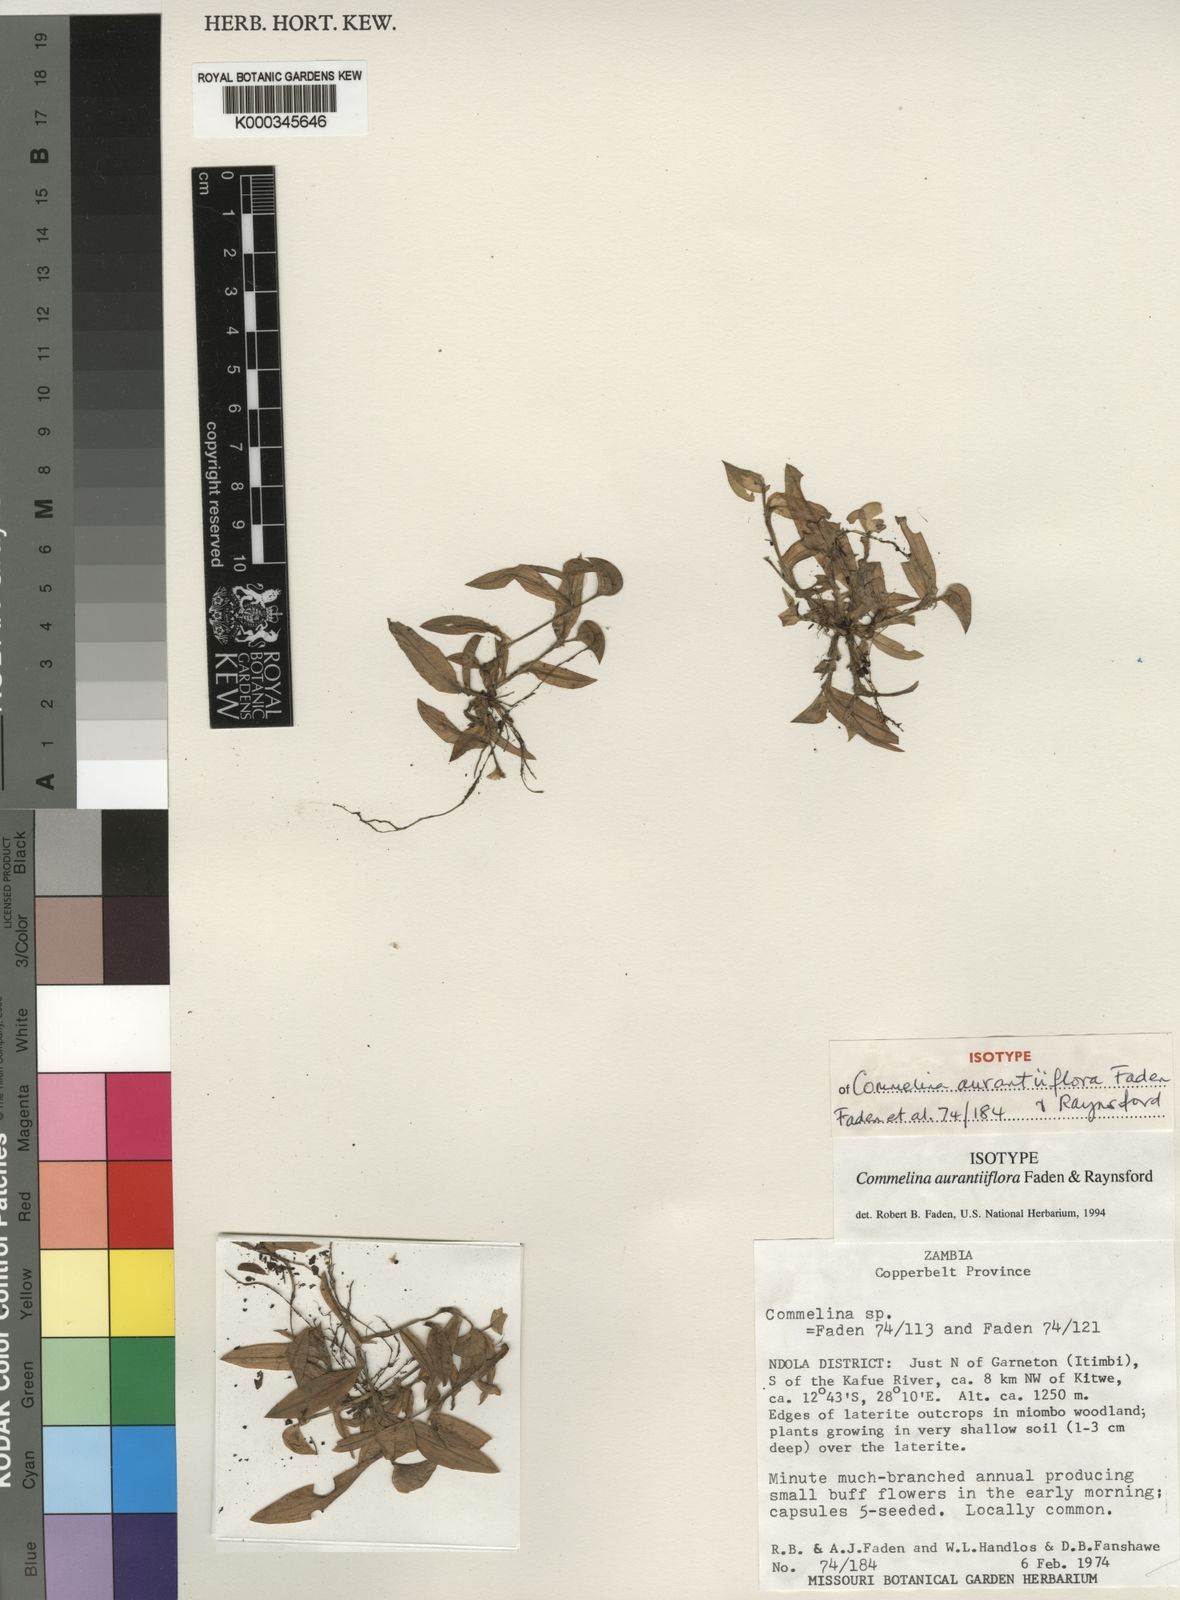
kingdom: Plantae
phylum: Tracheophyta
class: Liliopsida
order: Commelinales
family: Commelinaceae
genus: Commelina
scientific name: Commelina aurantiiflora
